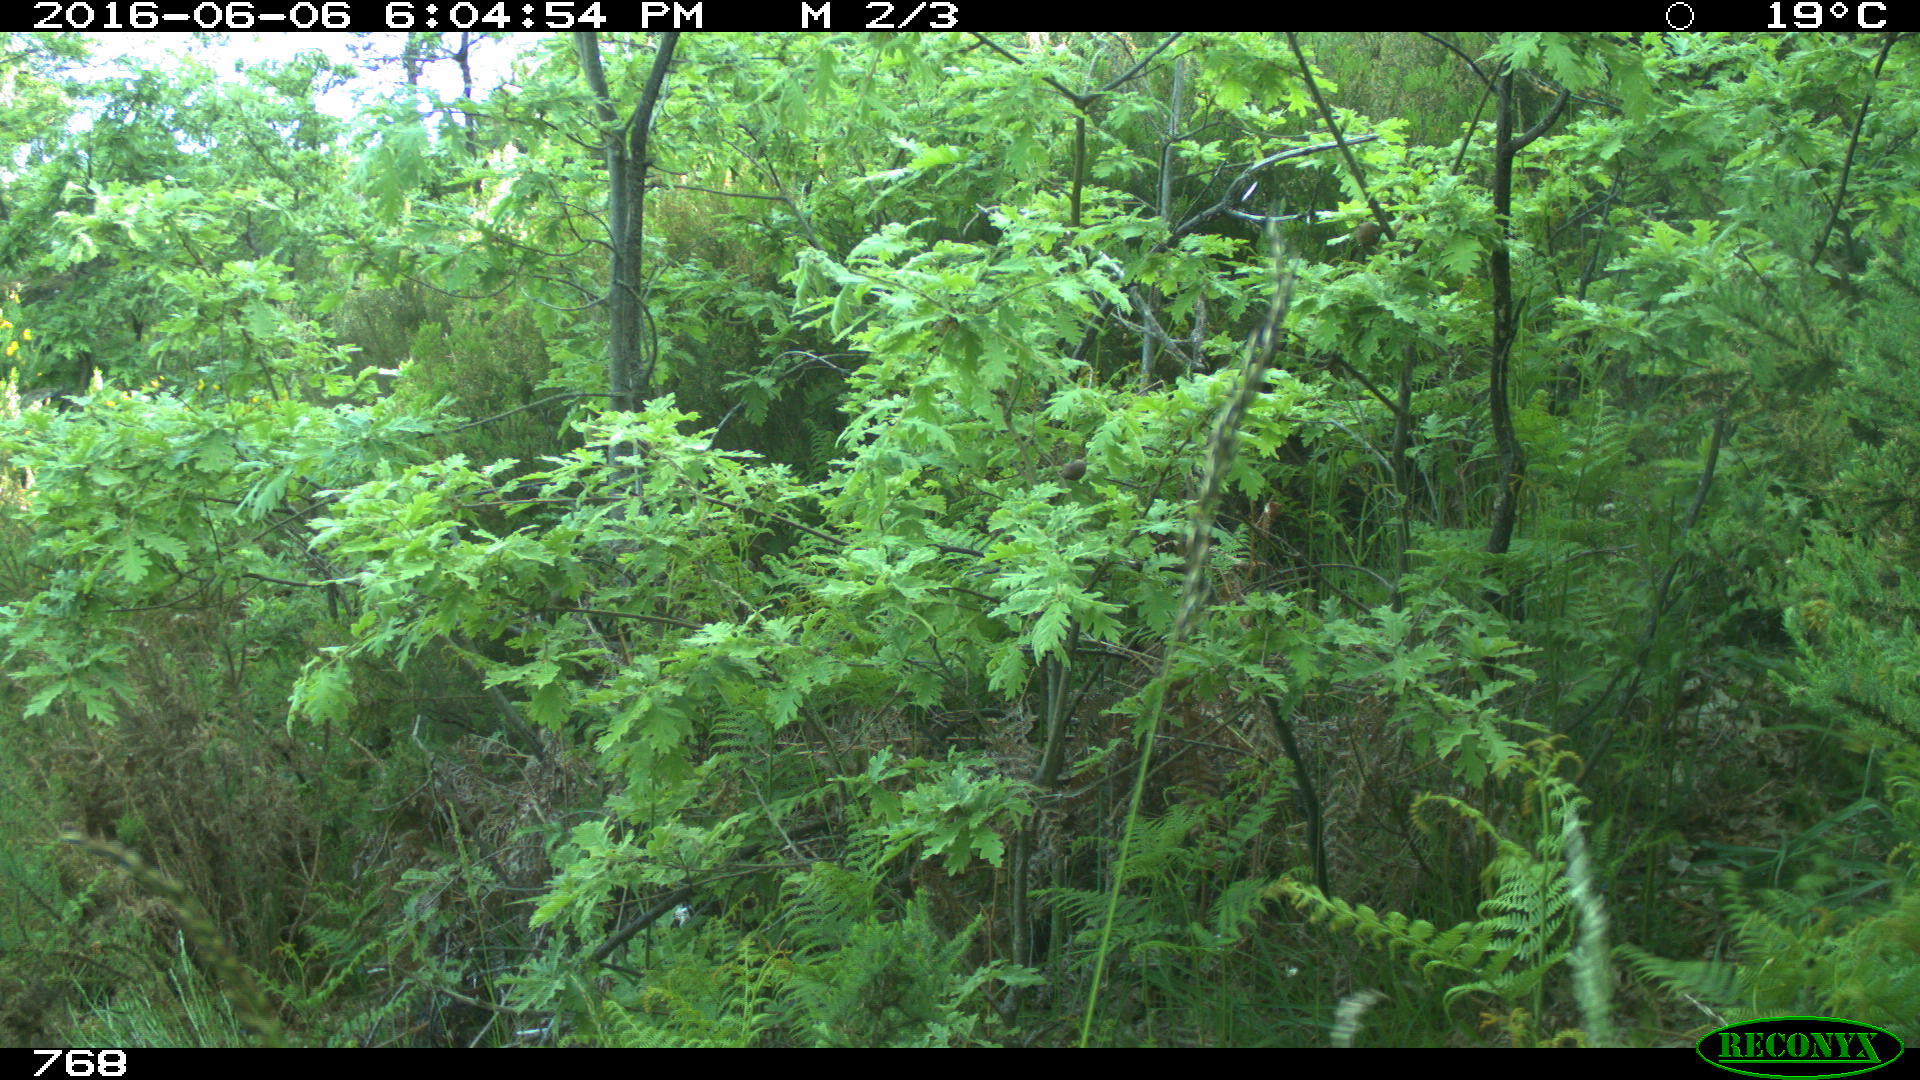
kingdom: Animalia
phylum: Chordata
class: Mammalia
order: Artiodactyla
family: Cervidae
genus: Capreolus
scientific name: Capreolus capreolus
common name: Western roe deer
